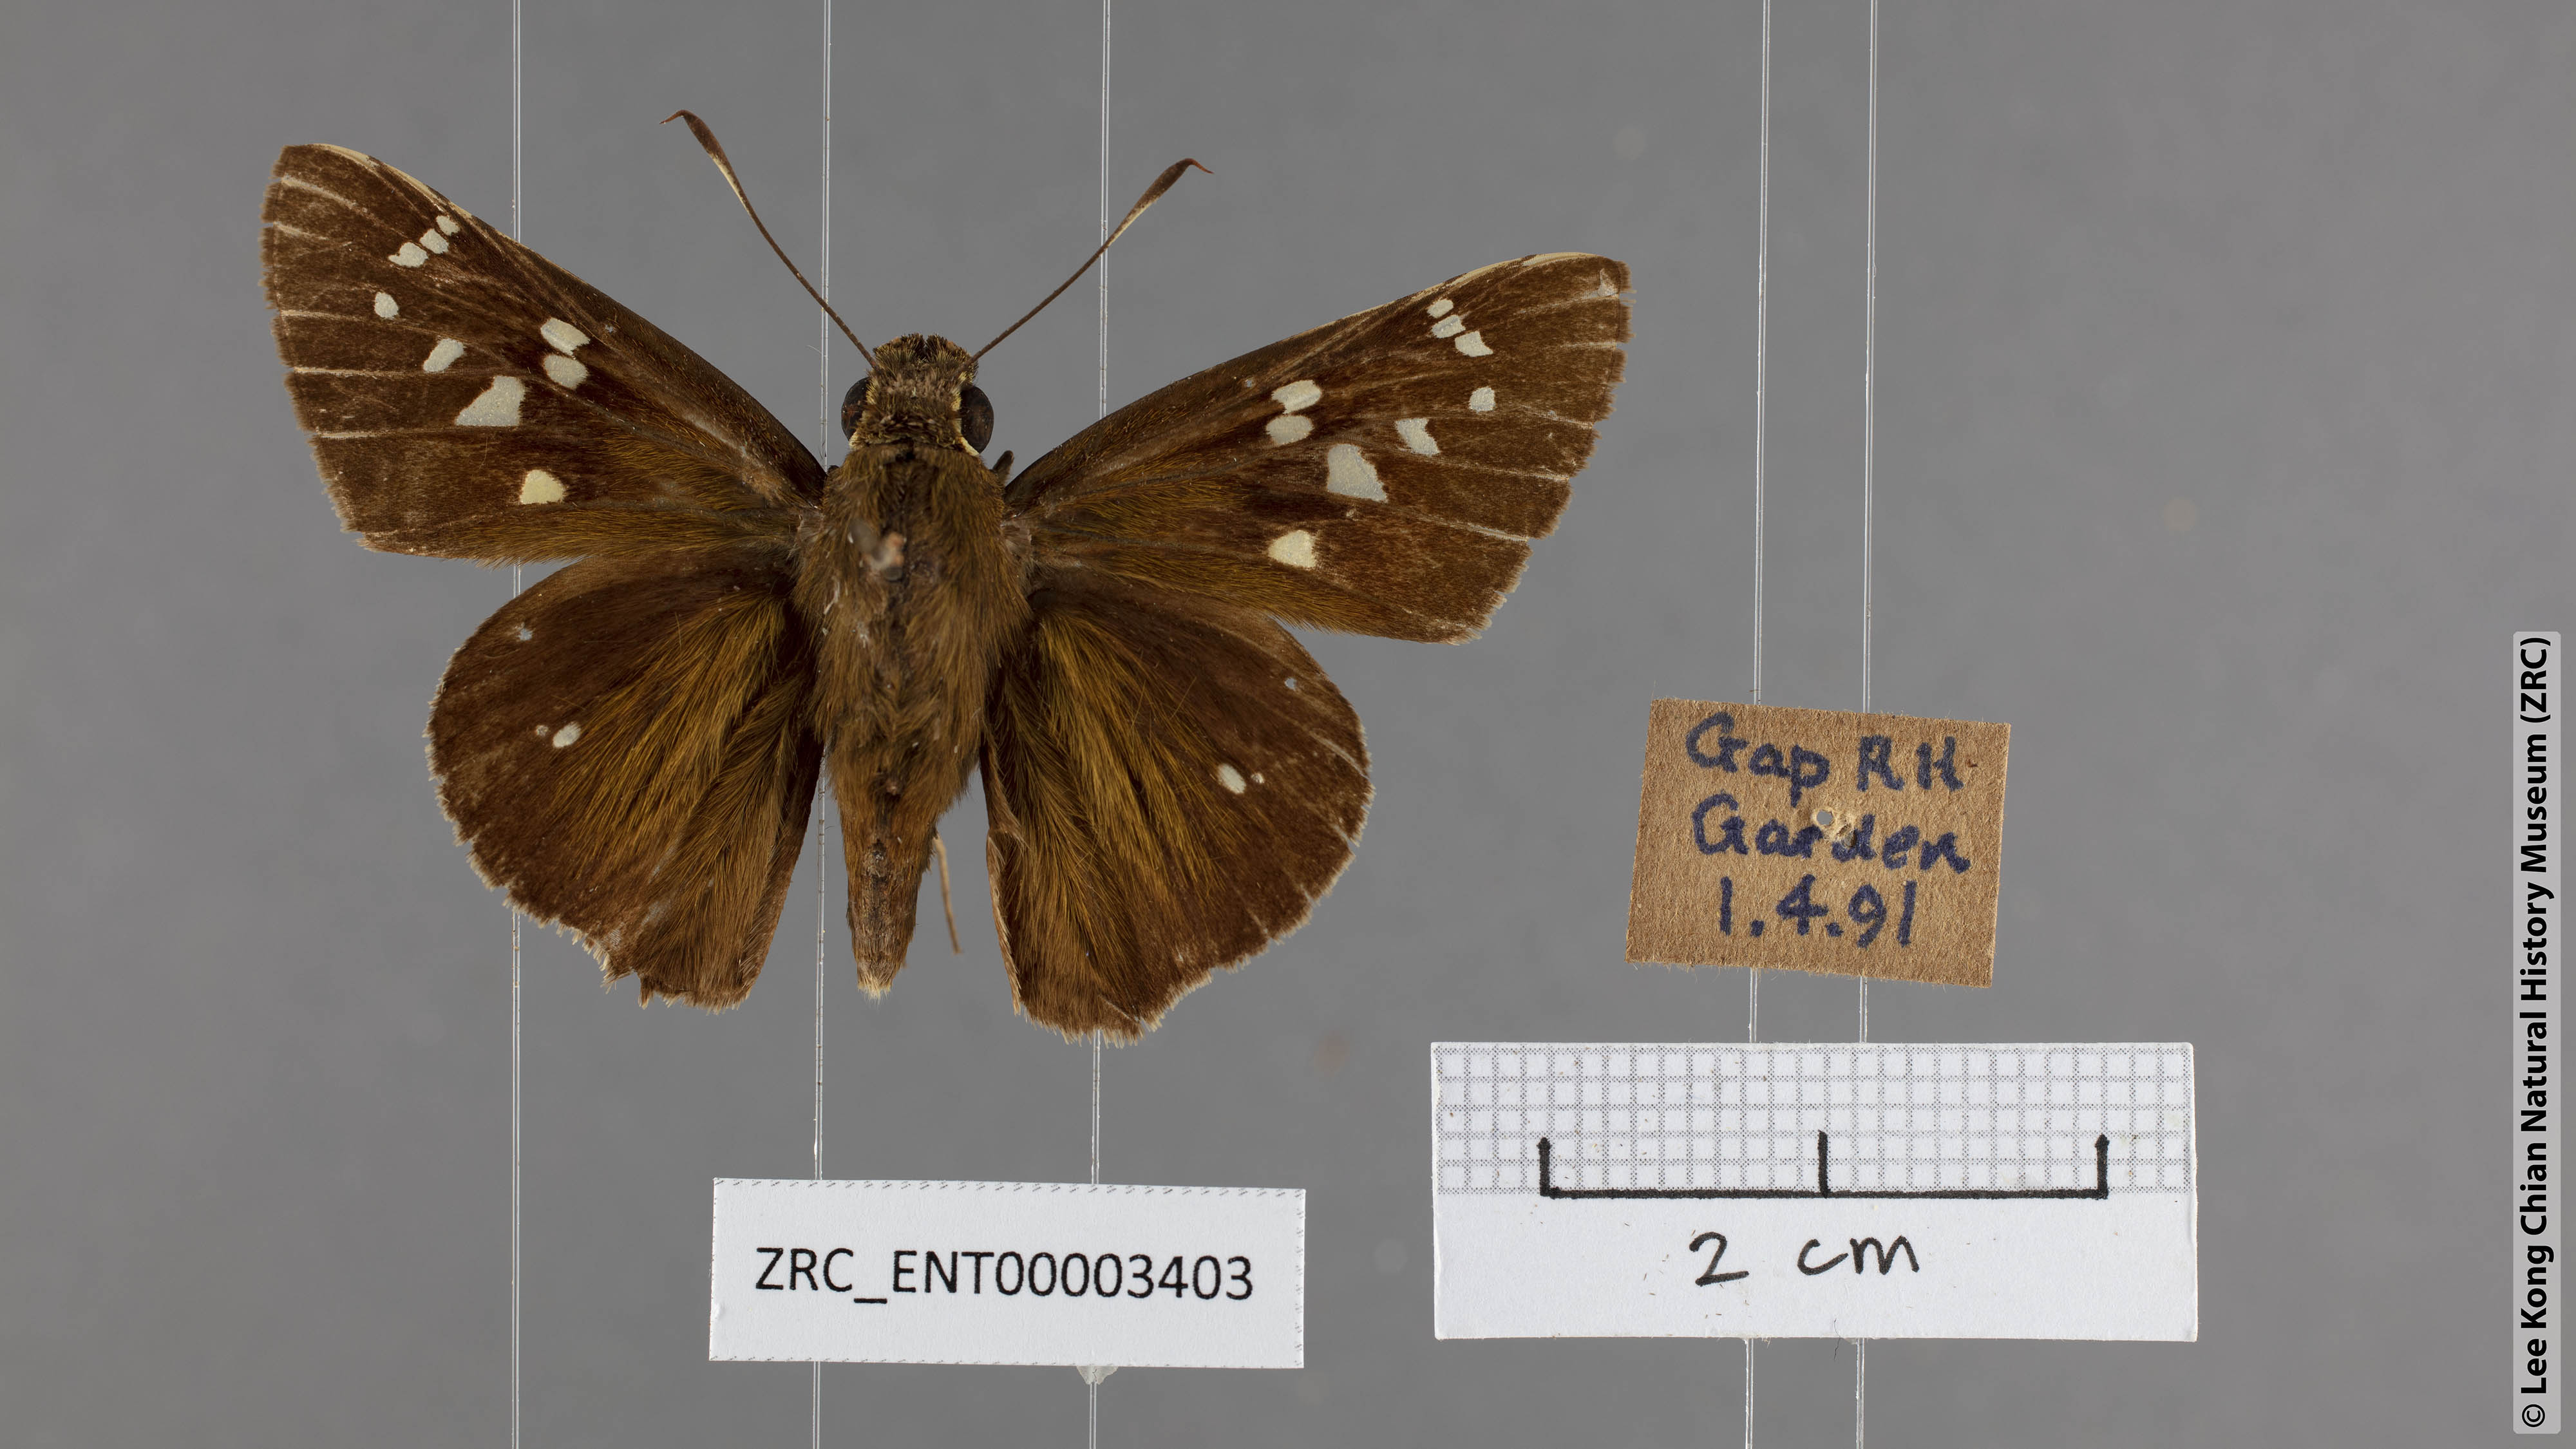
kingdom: Animalia
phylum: Arthropoda
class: Insecta
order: Lepidoptera
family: Hesperiidae
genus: Pelopidas
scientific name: Pelopidas assamensis
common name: Great swift
